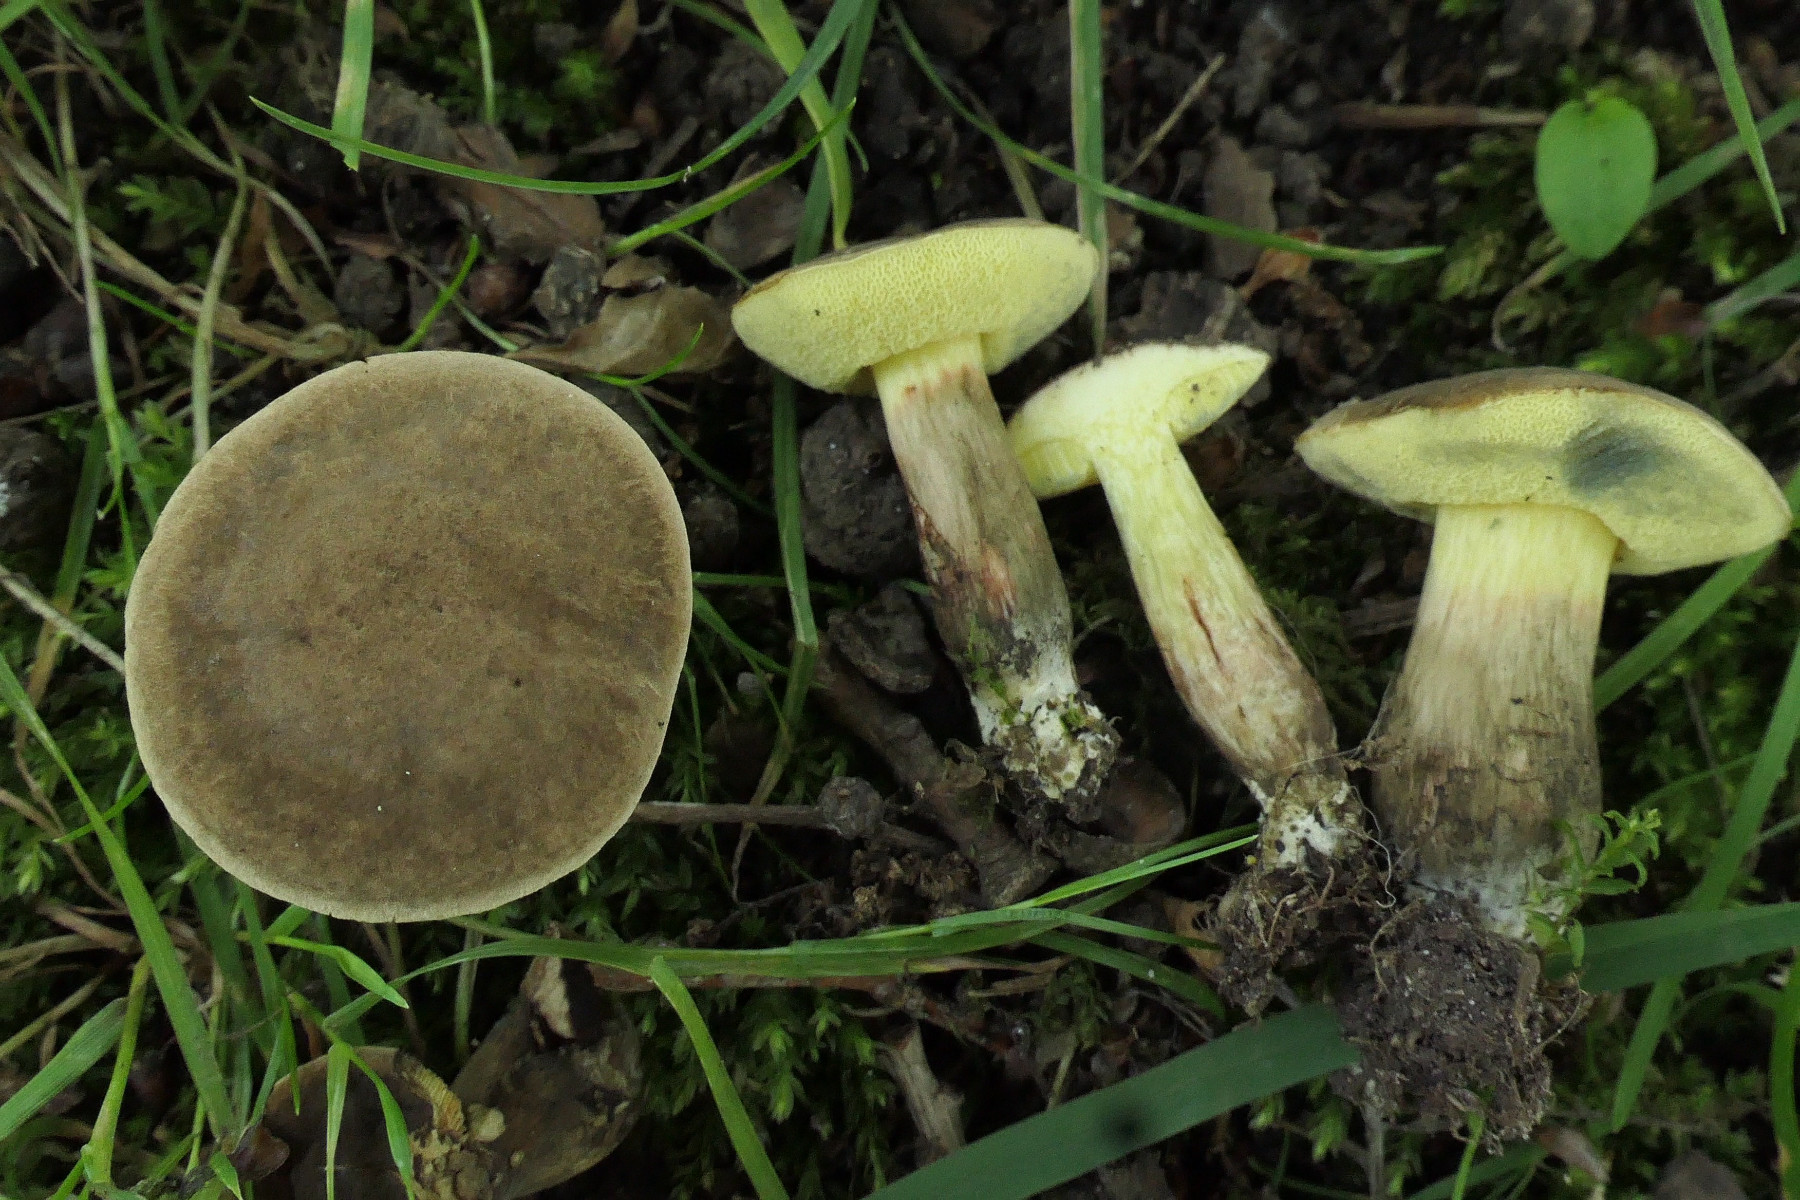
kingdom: Fungi
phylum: Basidiomycota
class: Agaricomycetes
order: Boletales
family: Boletaceae
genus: Xerocomellus
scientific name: Xerocomellus porosporus
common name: hvidsprukken rørhat
